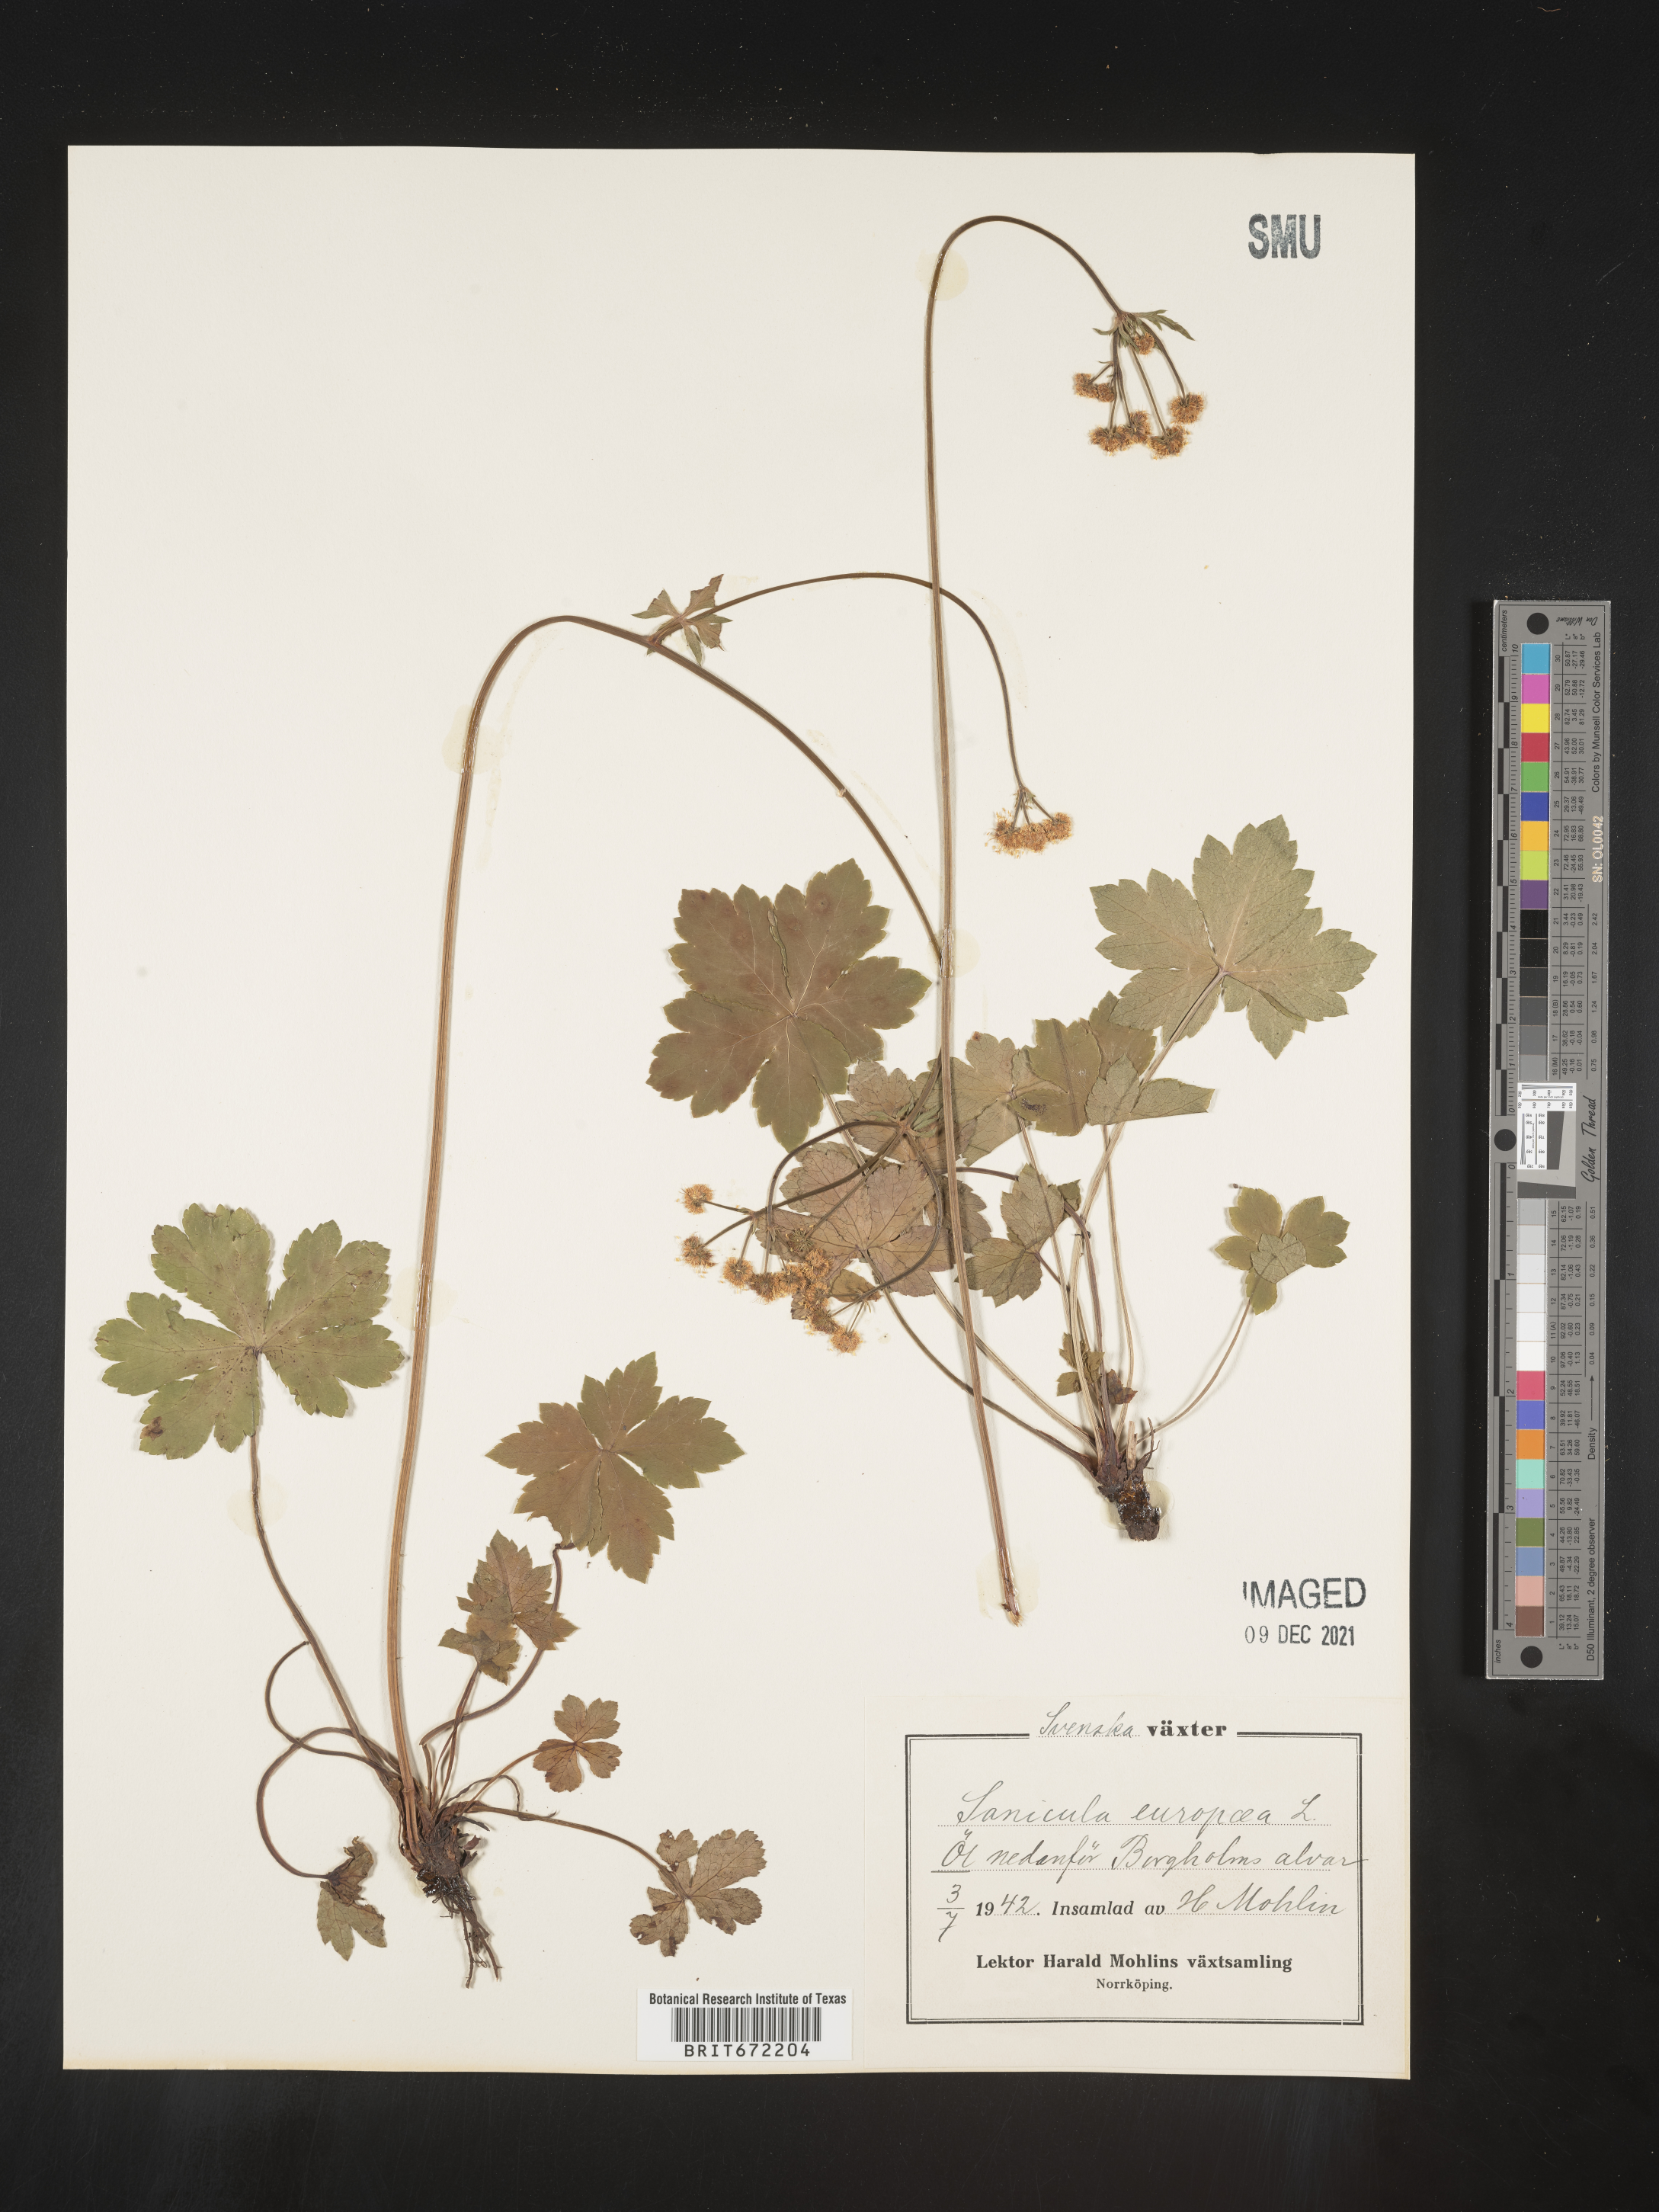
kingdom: Plantae
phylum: Tracheophyta
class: Magnoliopsida
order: Apiales
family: Apiaceae
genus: Sanicula
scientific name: Sanicula
